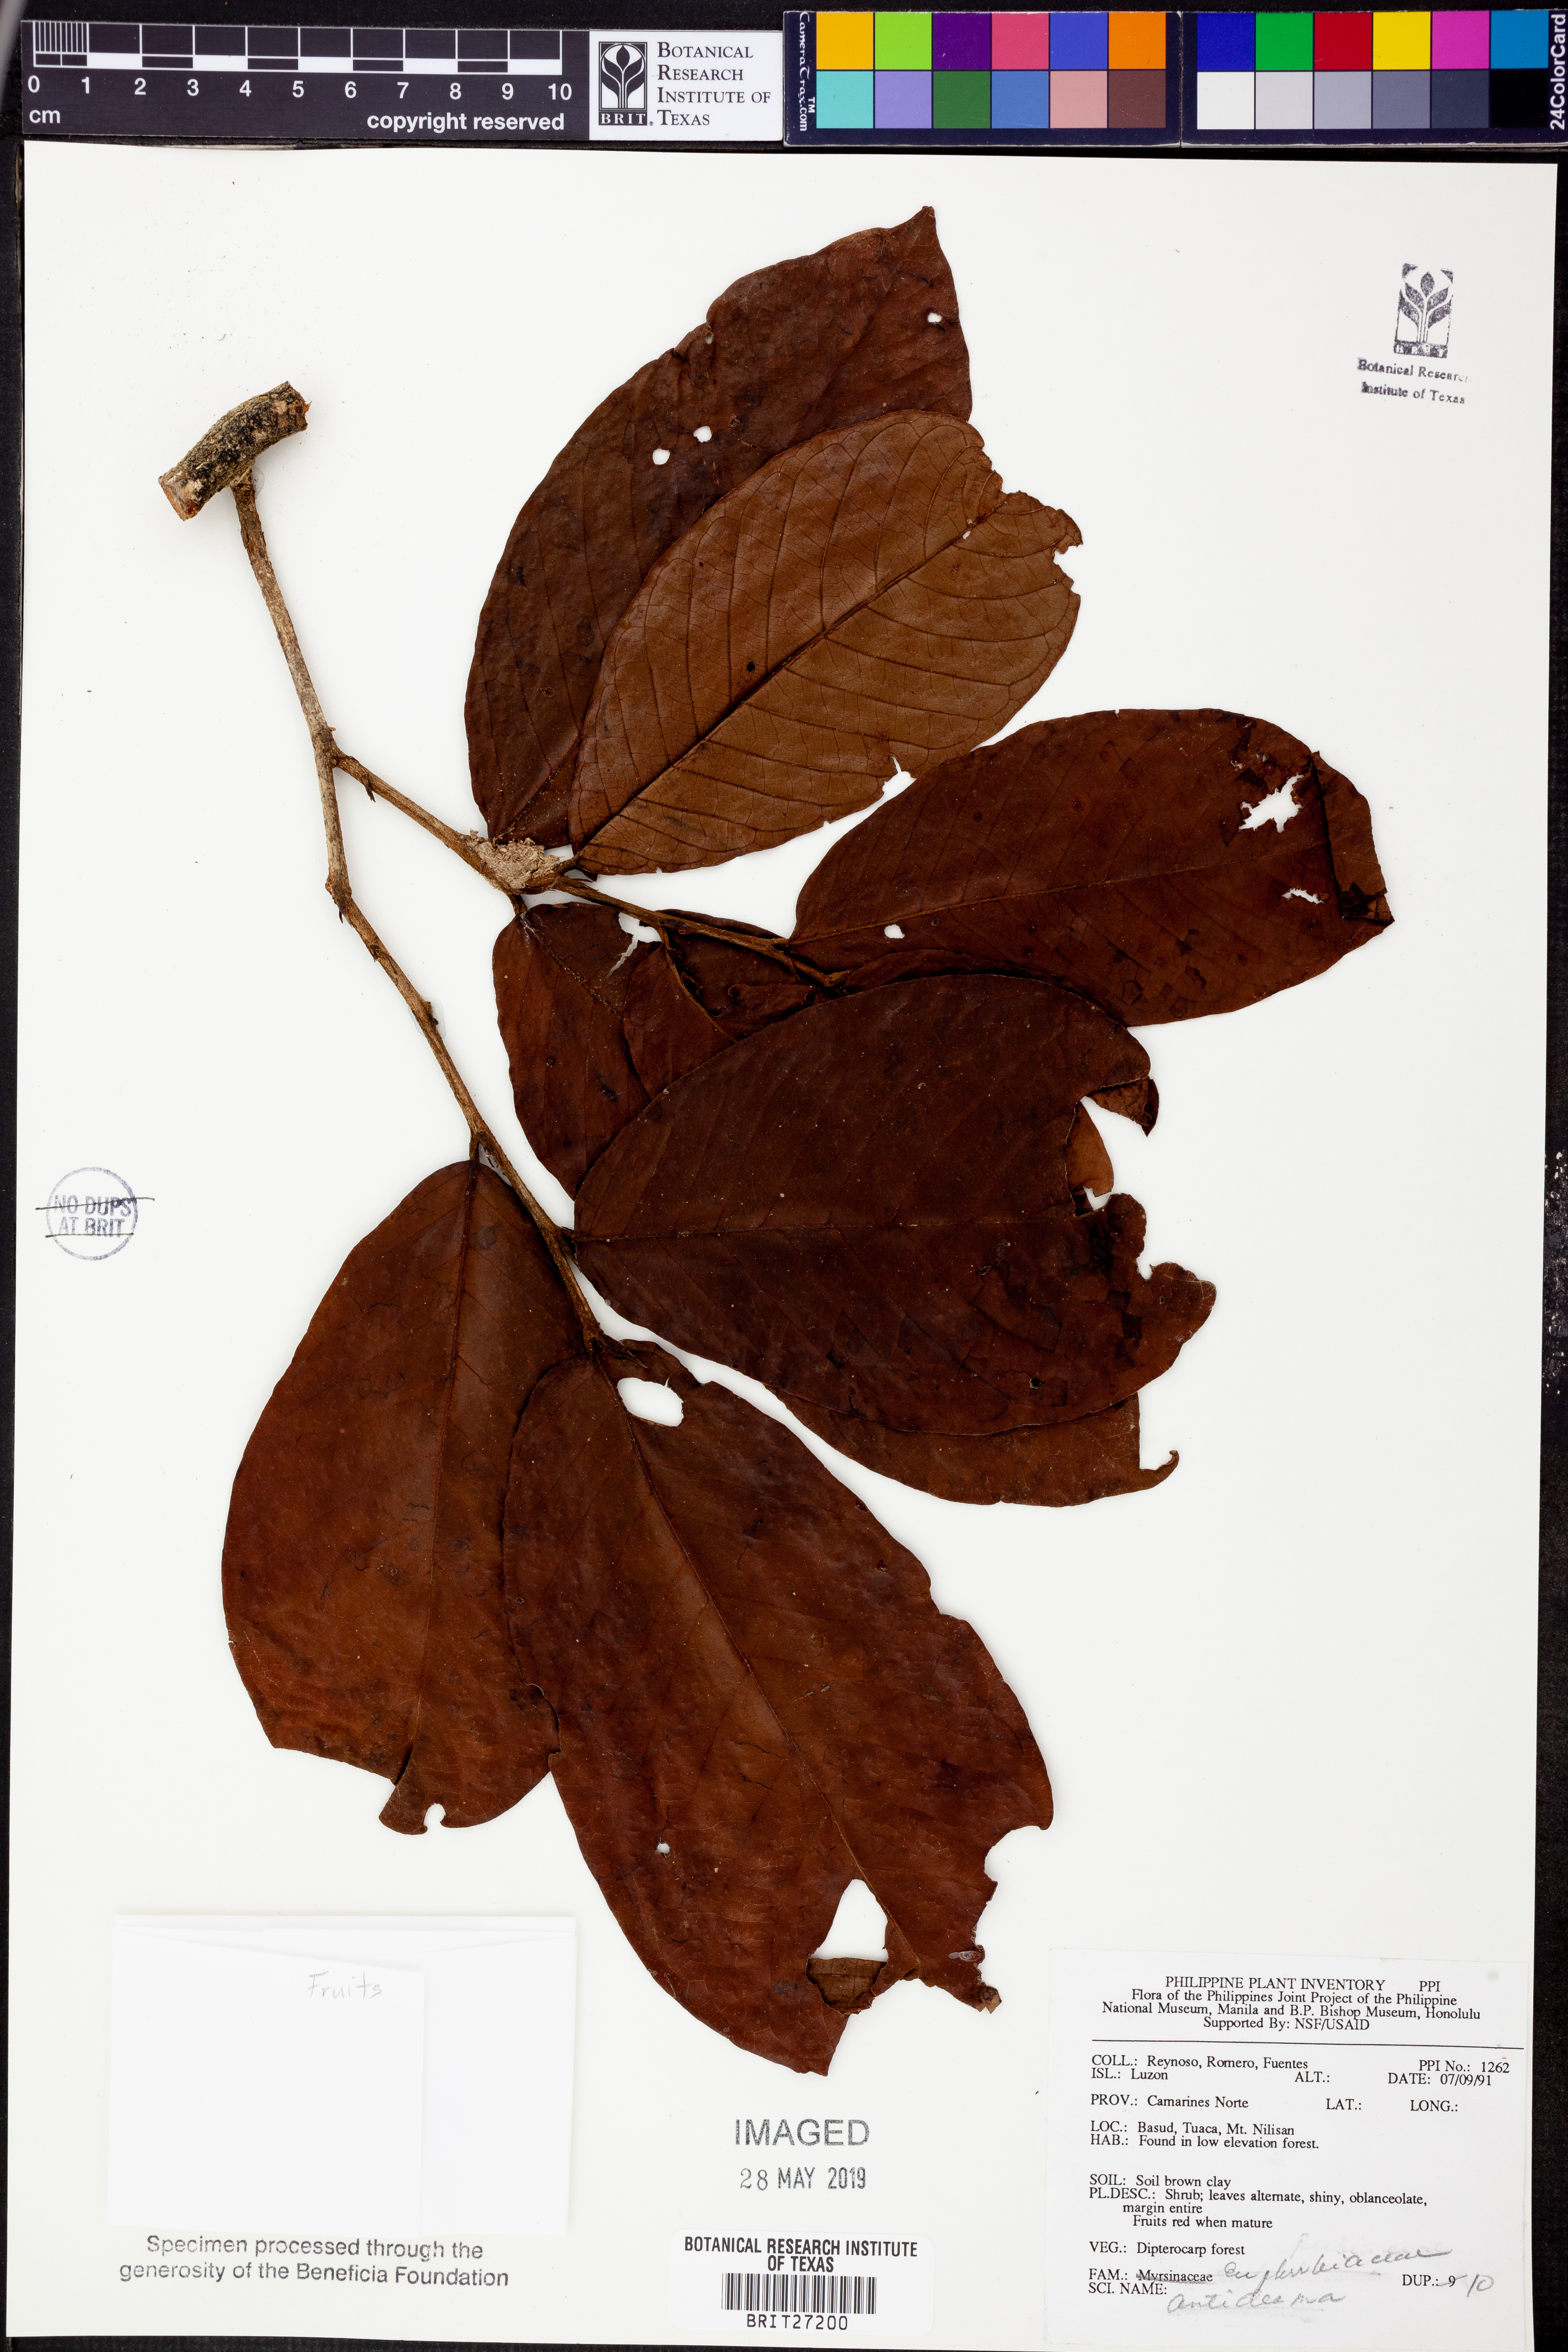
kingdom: Plantae
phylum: Tracheophyta
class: Magnoliopsida
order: Malpighiales
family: Phyllanthaceae
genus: Antidesma
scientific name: Antidesma
